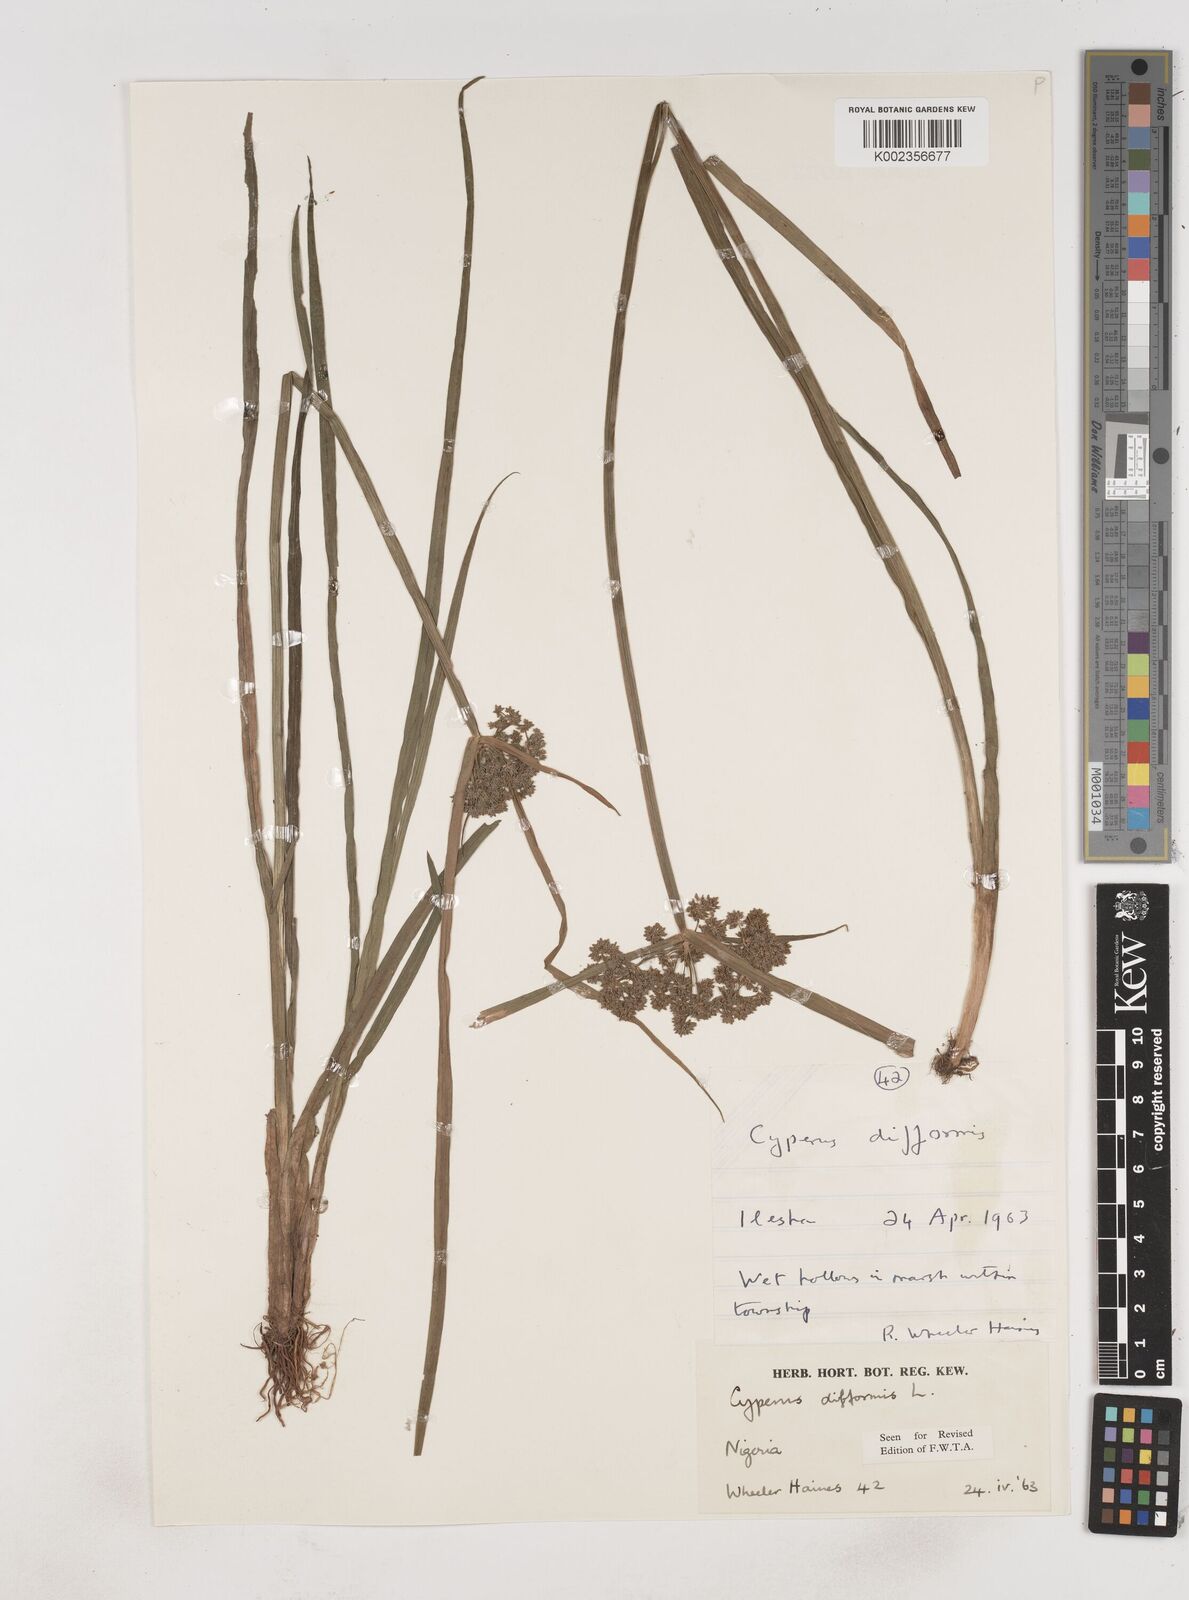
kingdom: Plantae
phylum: Tracheophyta
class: Liliopsida
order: Poales
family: Cyperaceae
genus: Cyperus
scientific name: Cyperus difformis
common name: Variable flatsedge
